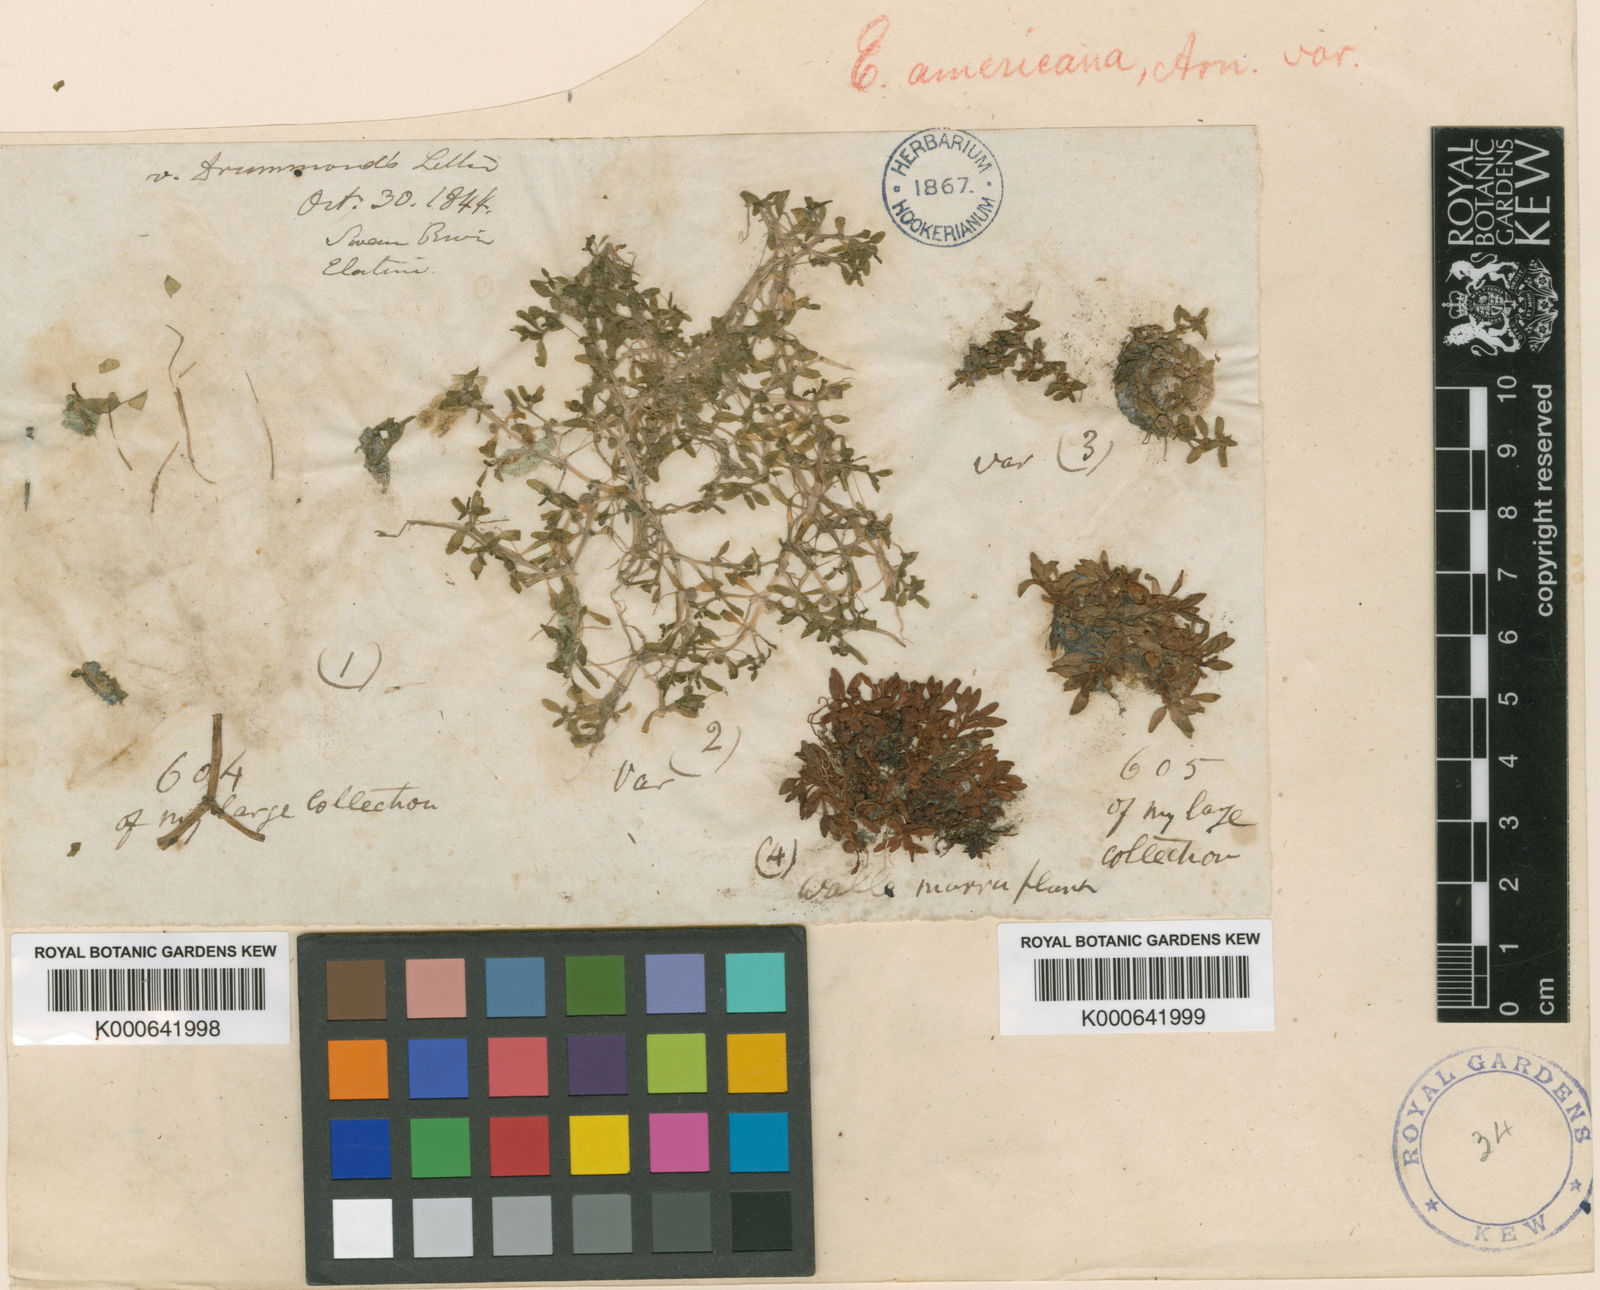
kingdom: Plantae
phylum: Tracheophyta
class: Magnoliopsida
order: Malpighiales
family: Elatinaceae
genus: Elatine
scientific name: Elatine gratioloides
